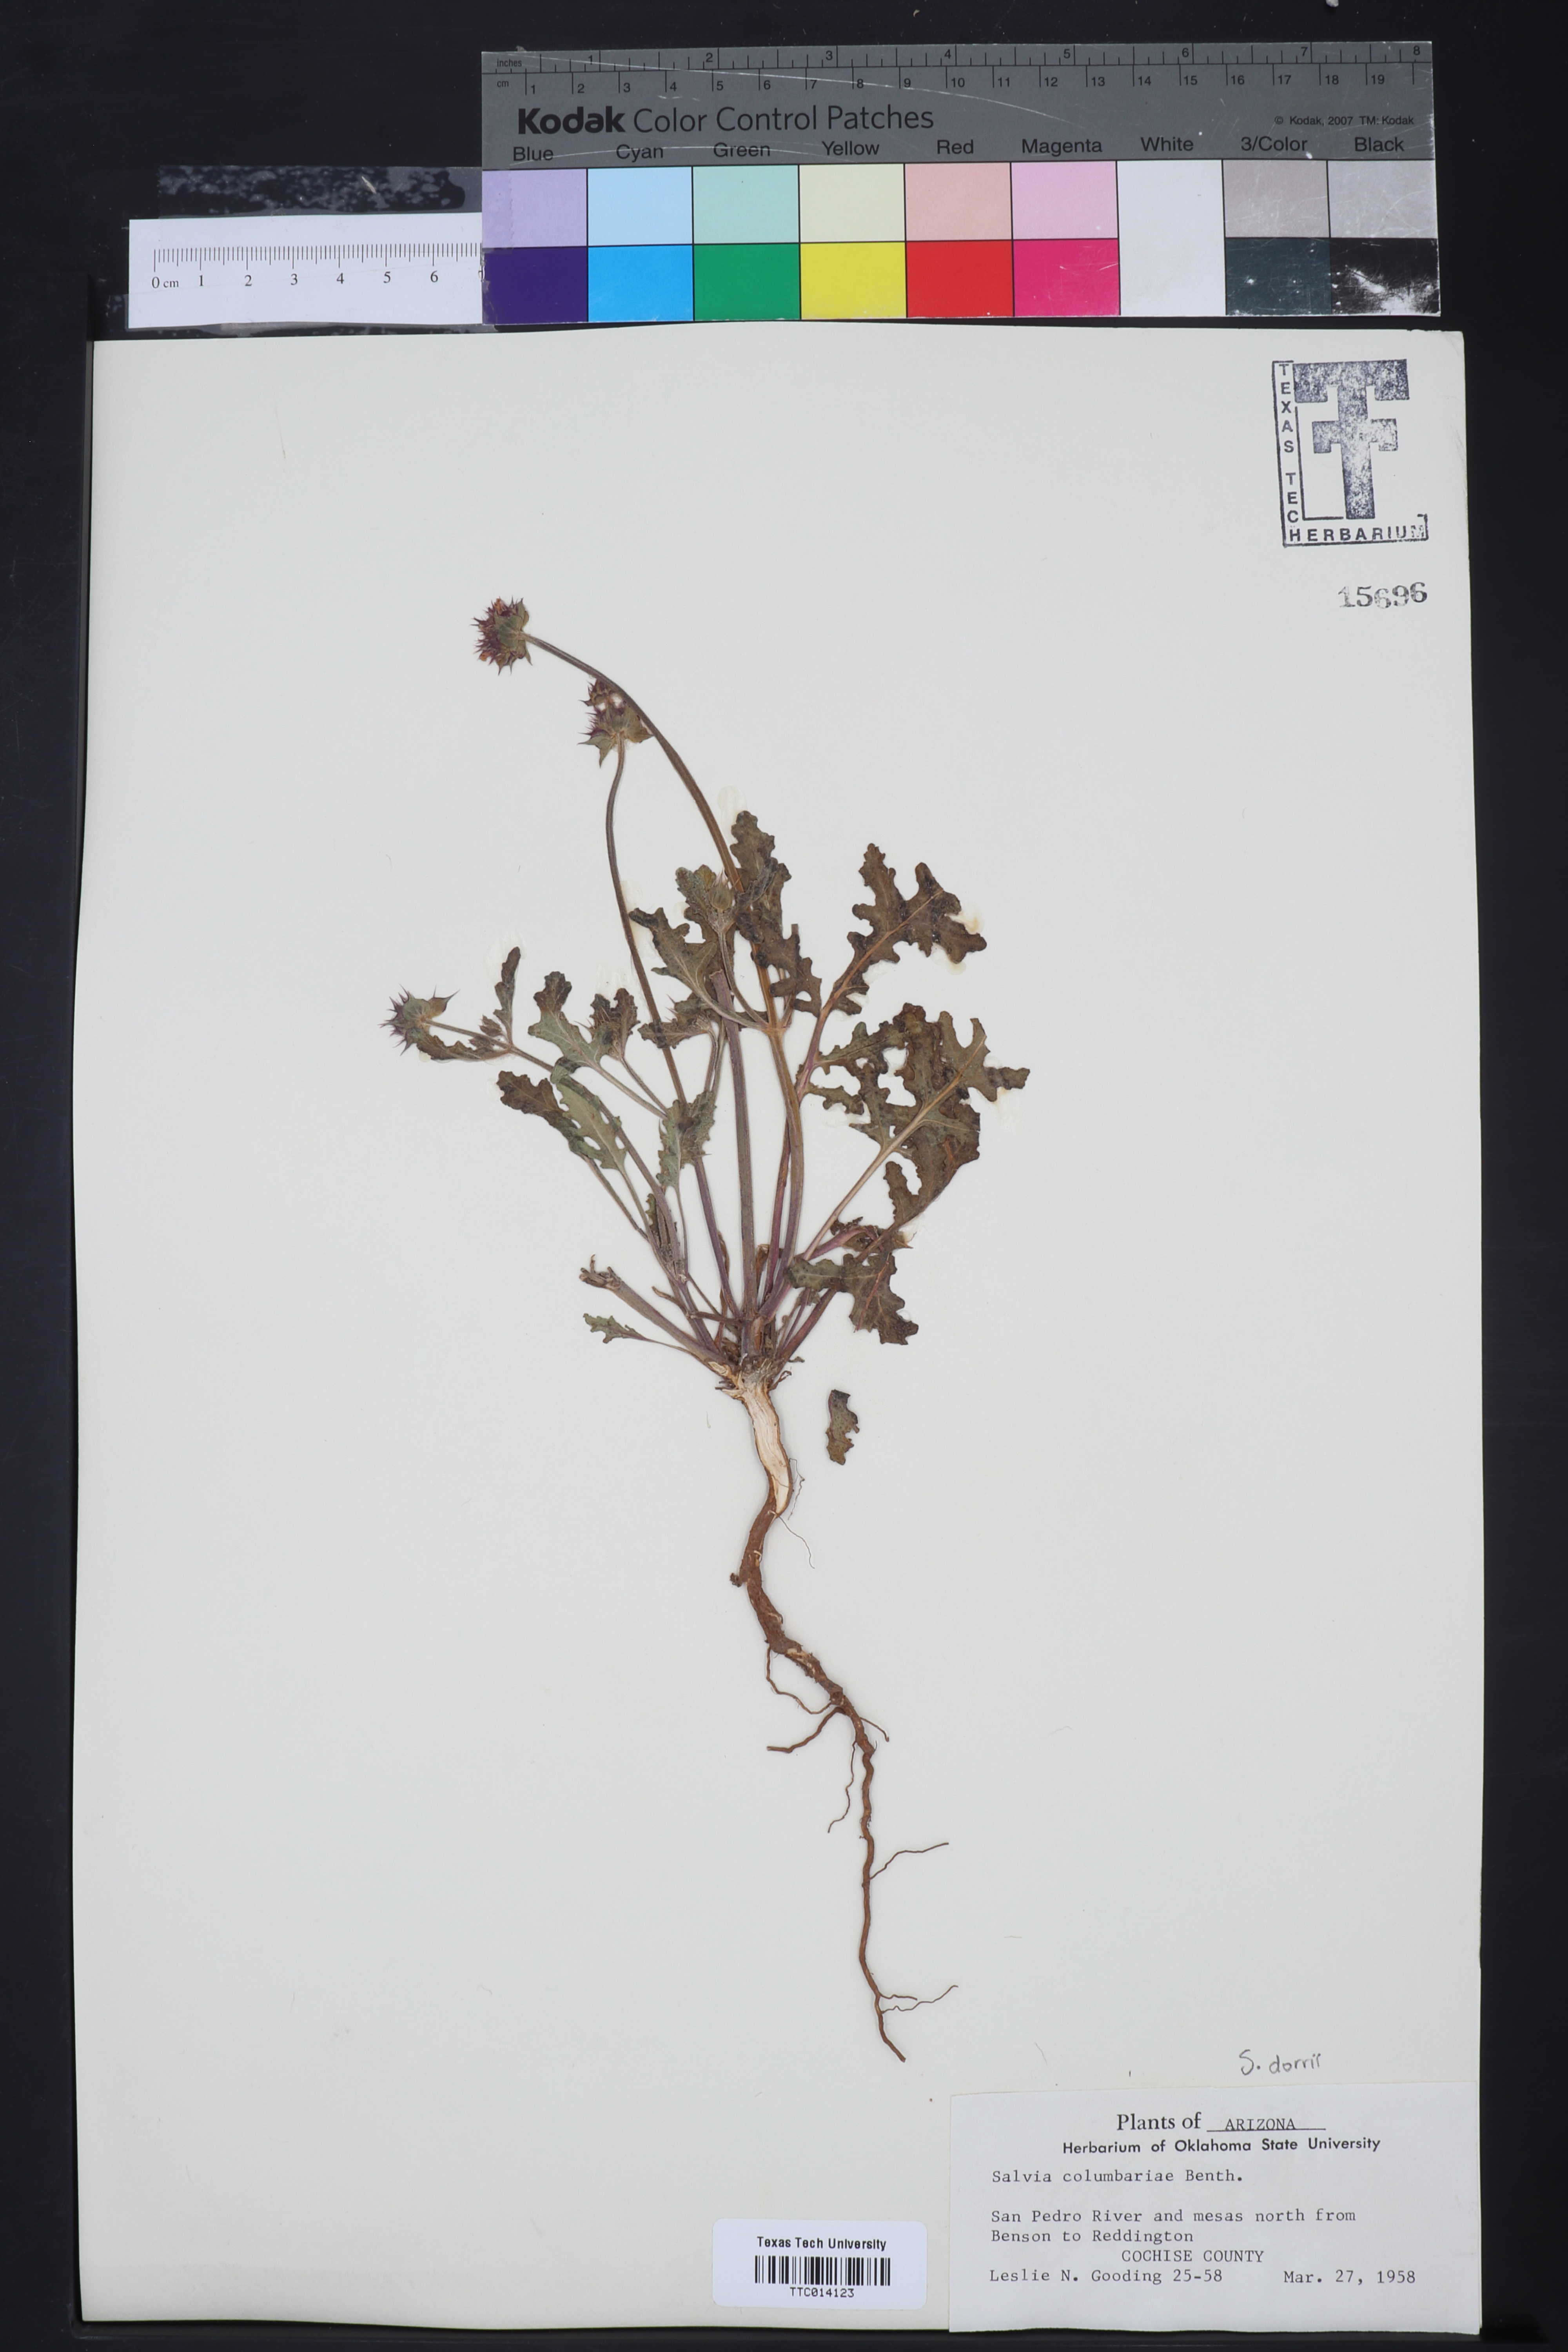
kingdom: Plantae
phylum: Tracheophyta
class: Magnoliopsida
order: Lamiales
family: Lamiaceae
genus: Salvia
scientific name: Salvia columbariae
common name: Chia
